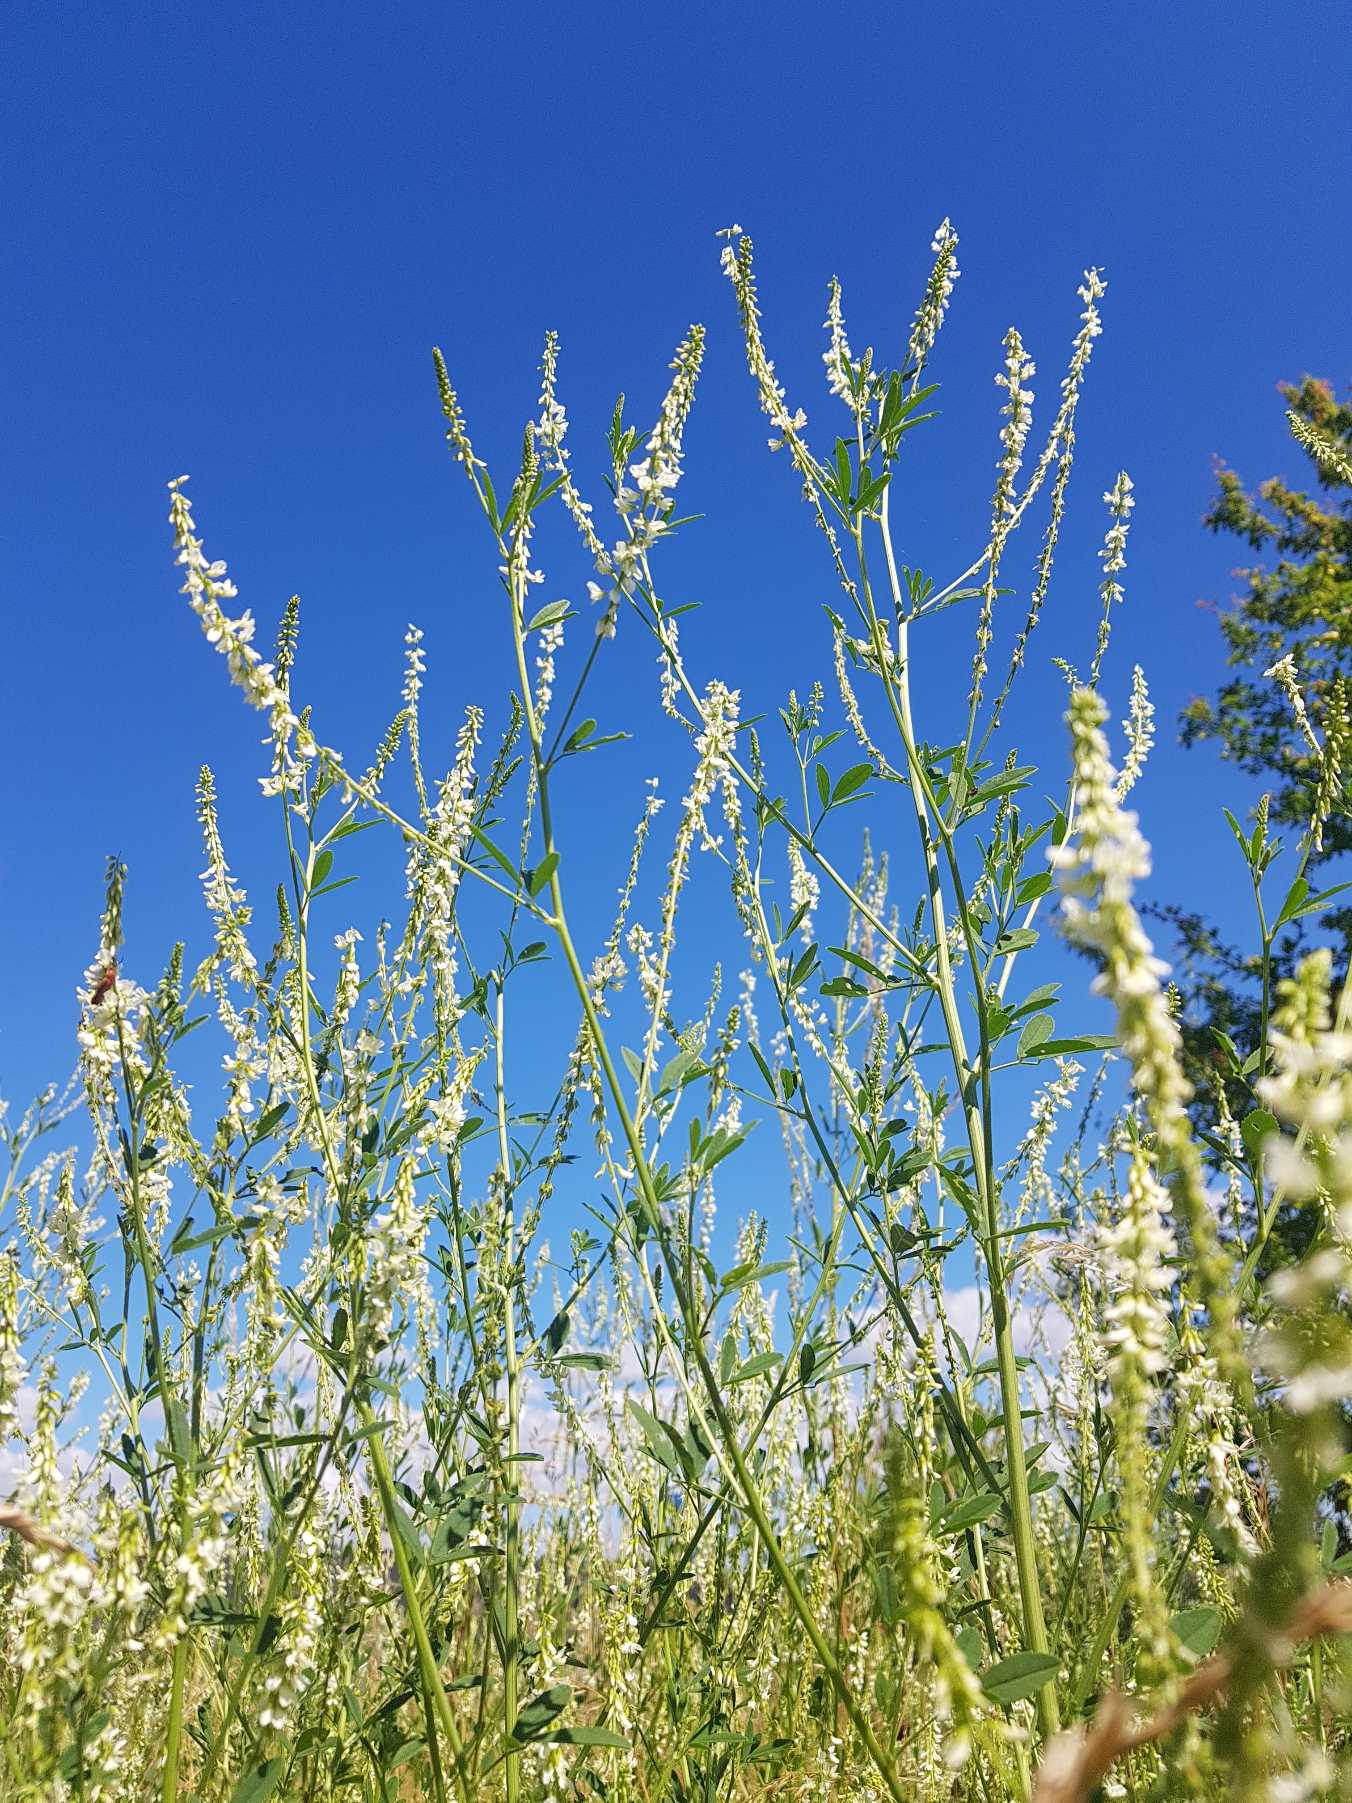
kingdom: Plantae
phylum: Tracheophyta
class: Magnoliopsida
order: Fabales
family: Fabaceae
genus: Melilotus
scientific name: Melilotus albus
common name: Hvid stenkløver
